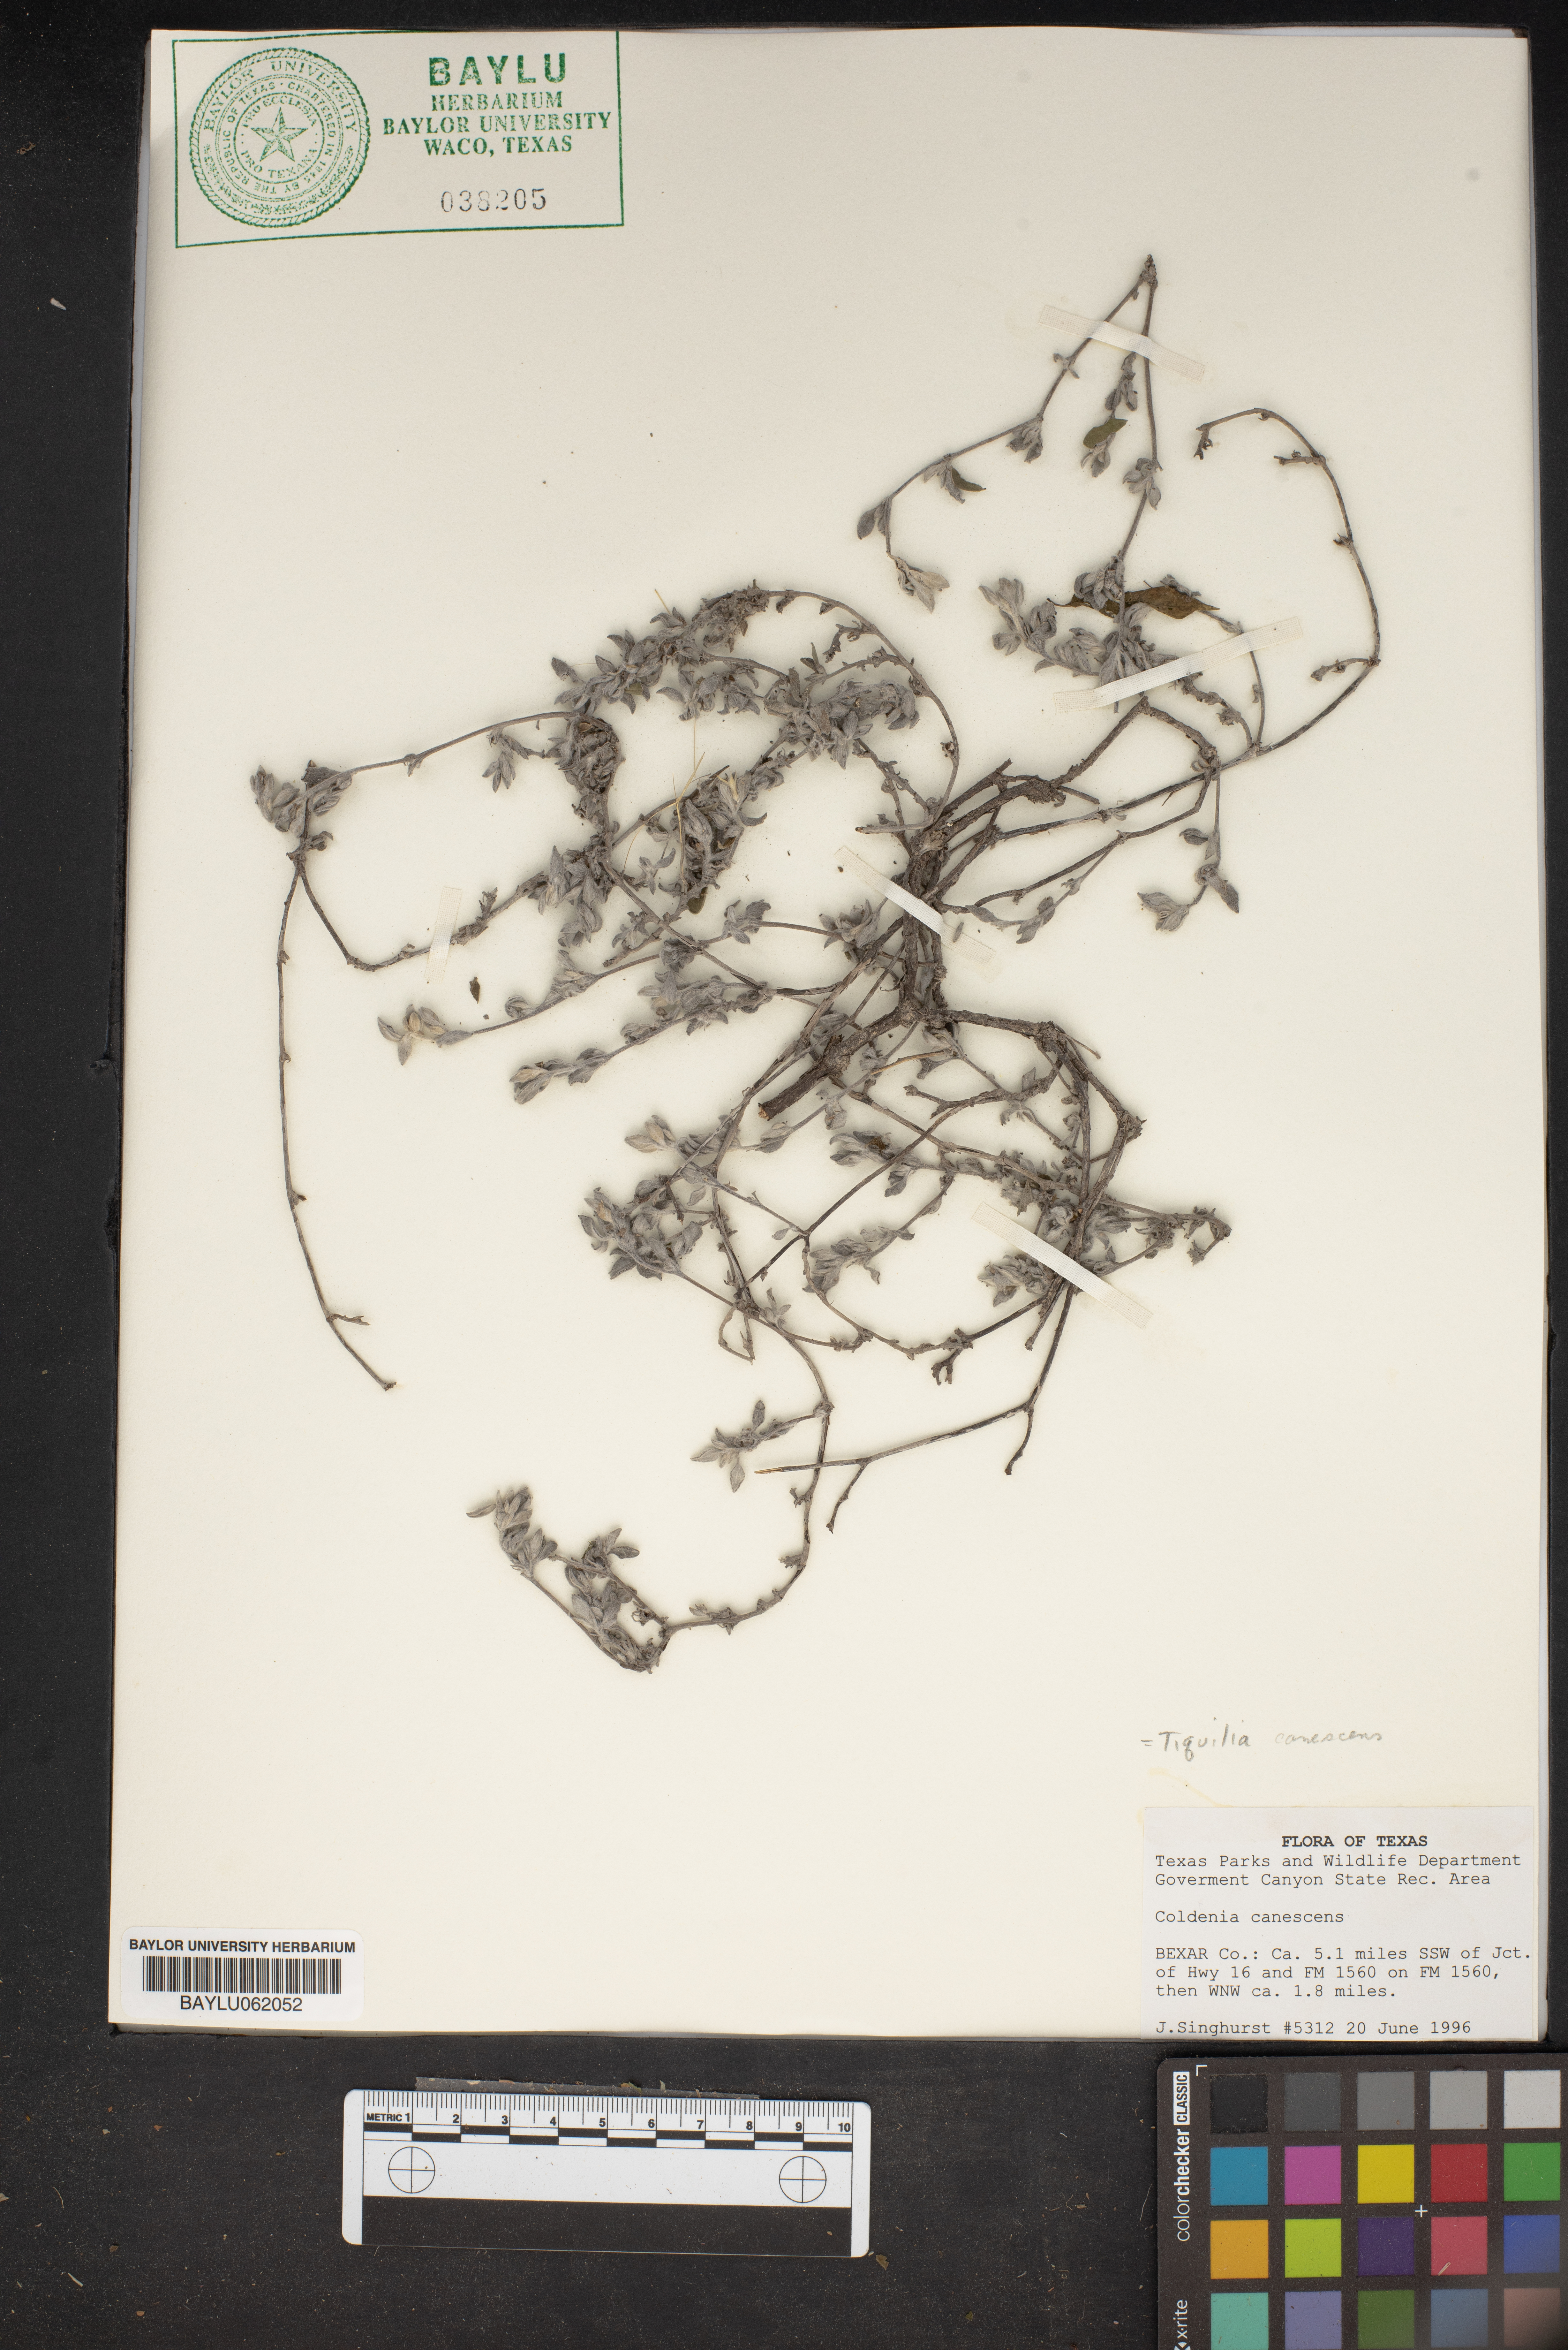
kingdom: Plantae
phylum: Tracheophyta
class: Magnoliopsida
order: Boraginales
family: Ehretiaceae
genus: Tiquilia
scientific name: Tiquilia canescens
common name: Hairy tiquilia
